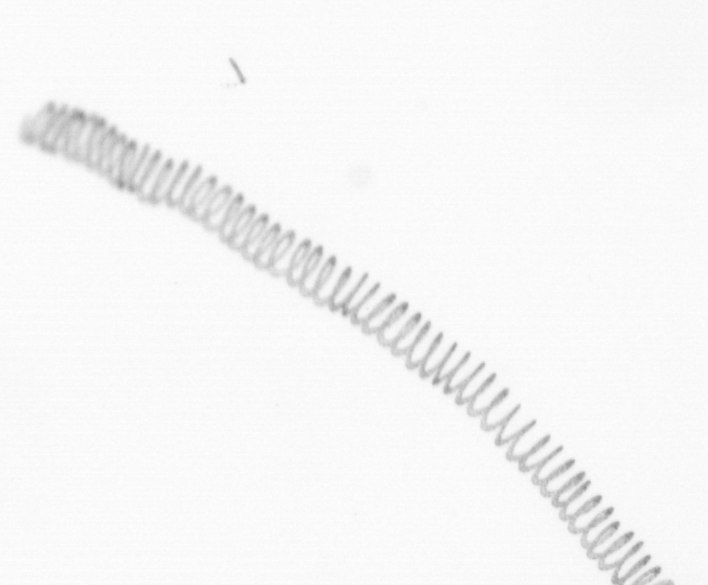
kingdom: Chromista
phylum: Ochrophyta
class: Bacillariophyceae
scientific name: Bacillariophyceae
